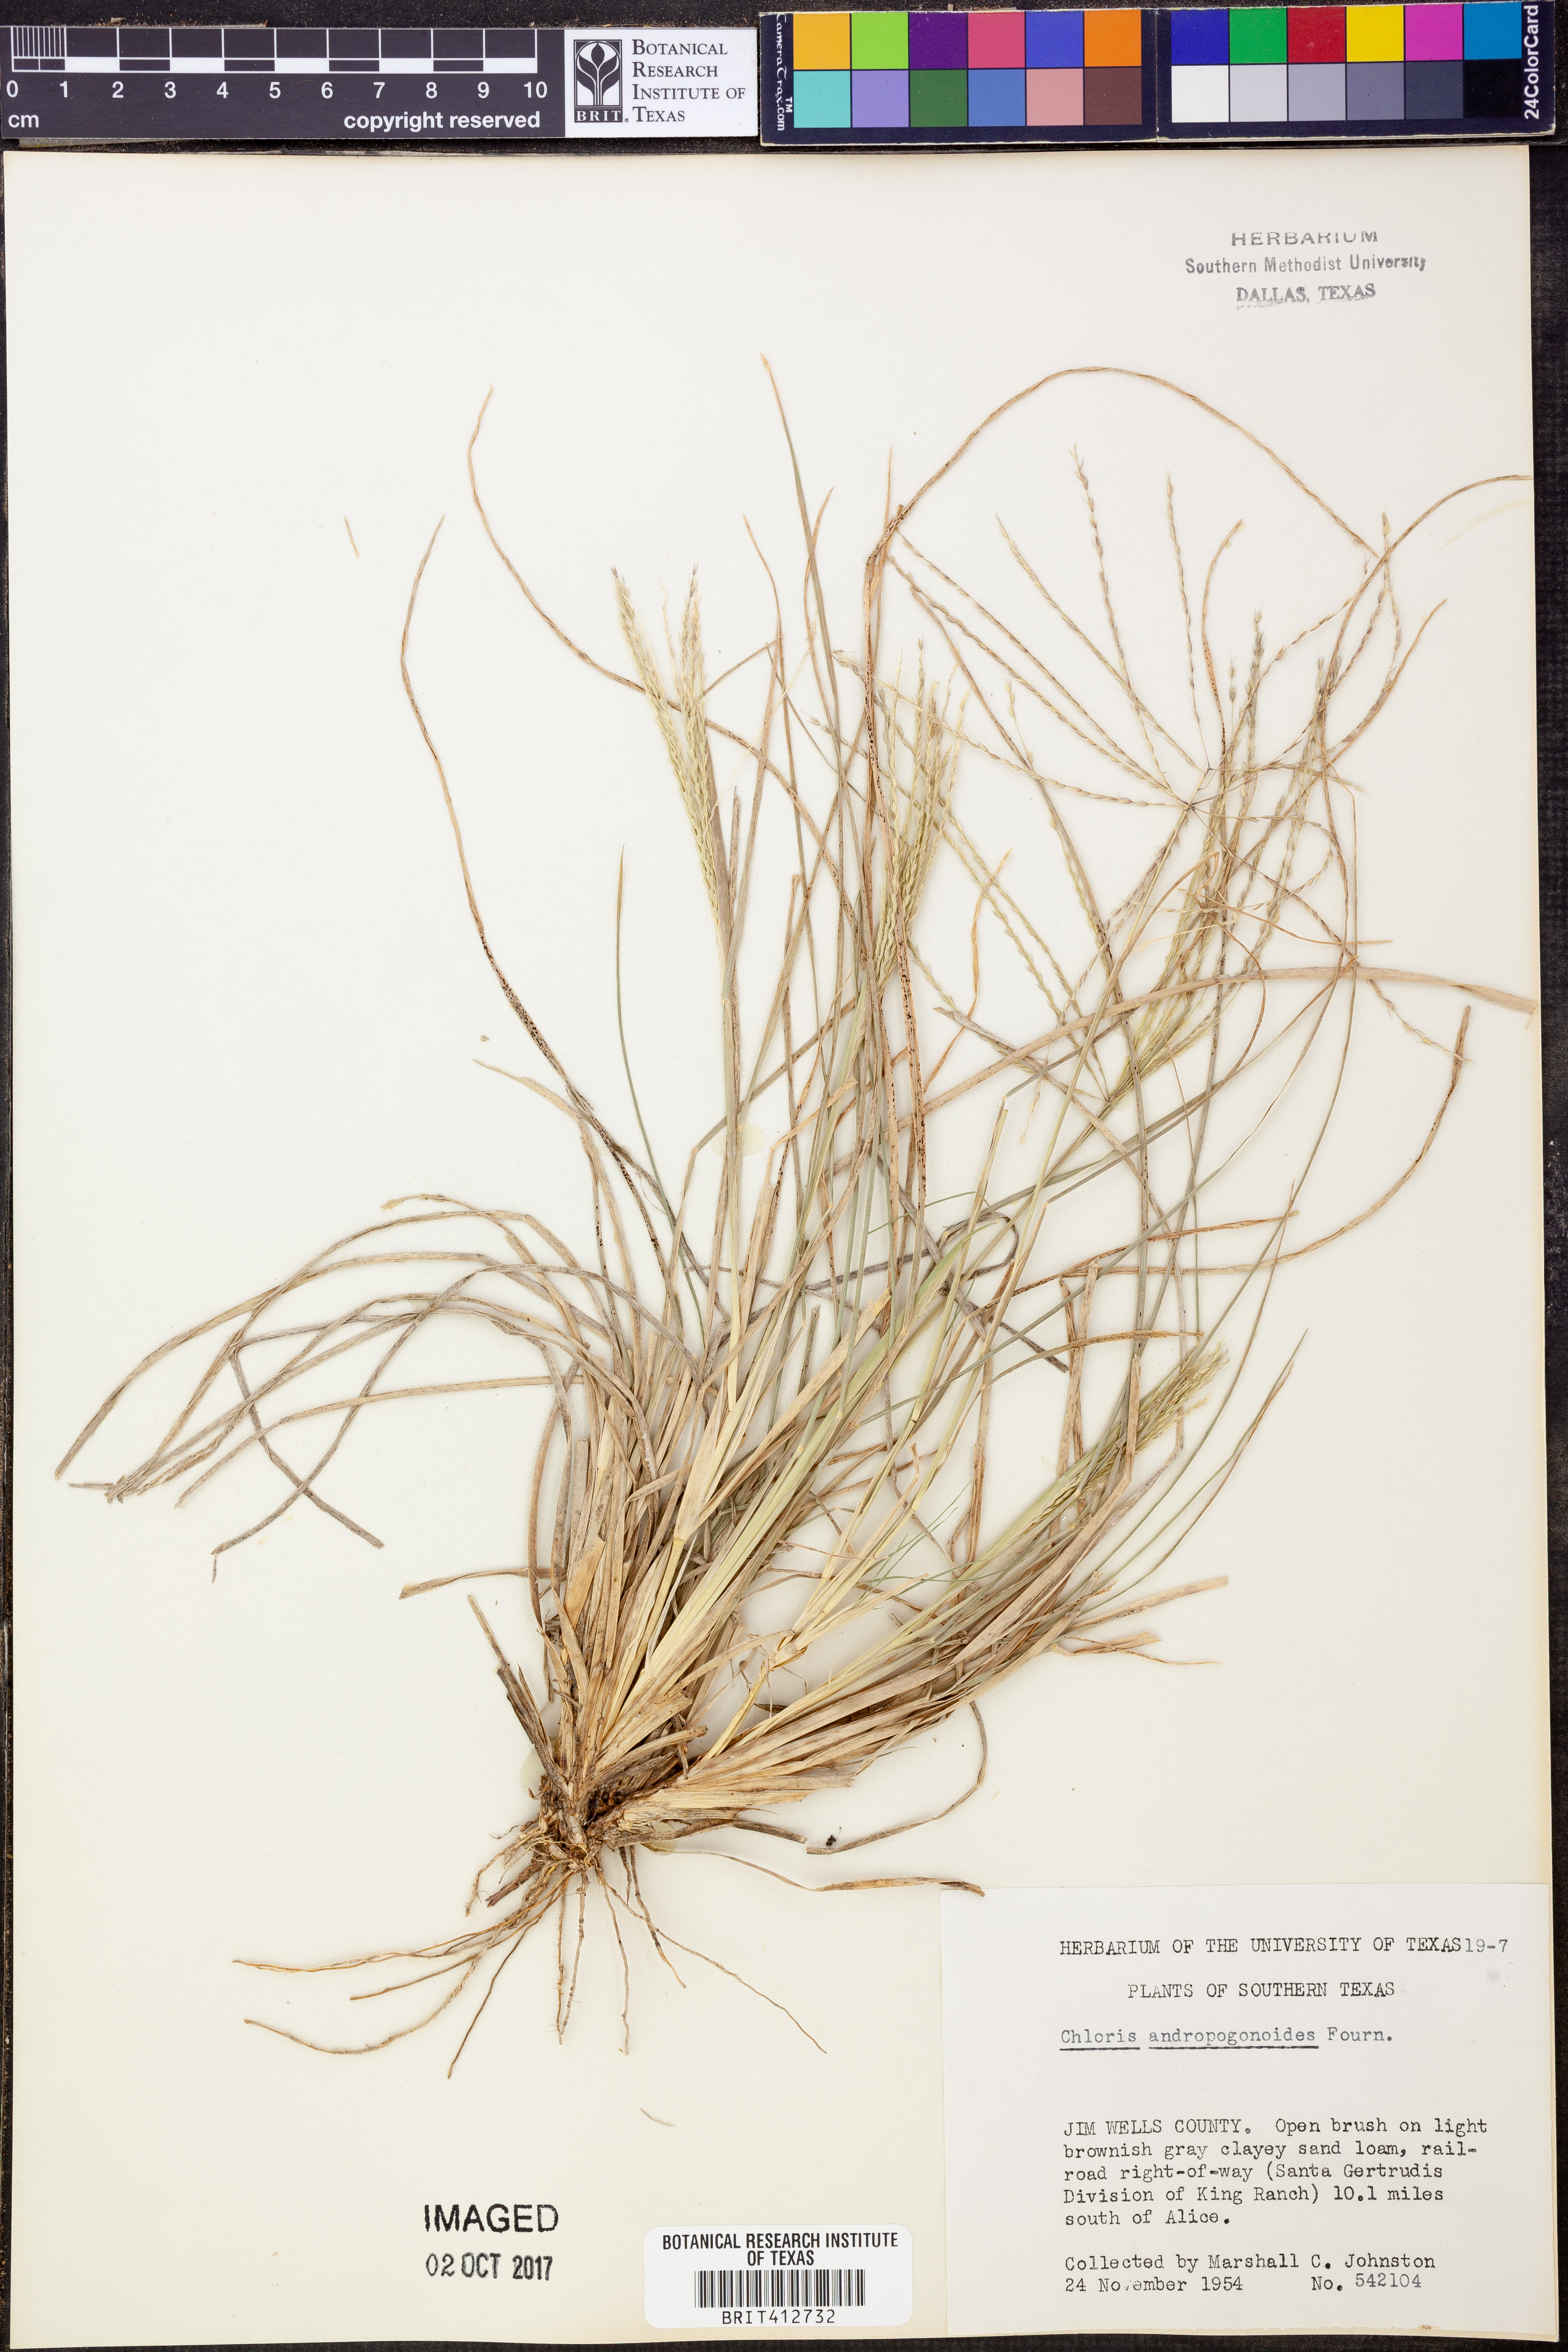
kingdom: Plantae
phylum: Tracheophyta
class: Liliopsida
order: Poales
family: Poaceae
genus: Chloris
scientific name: Chloris andropogonoides
